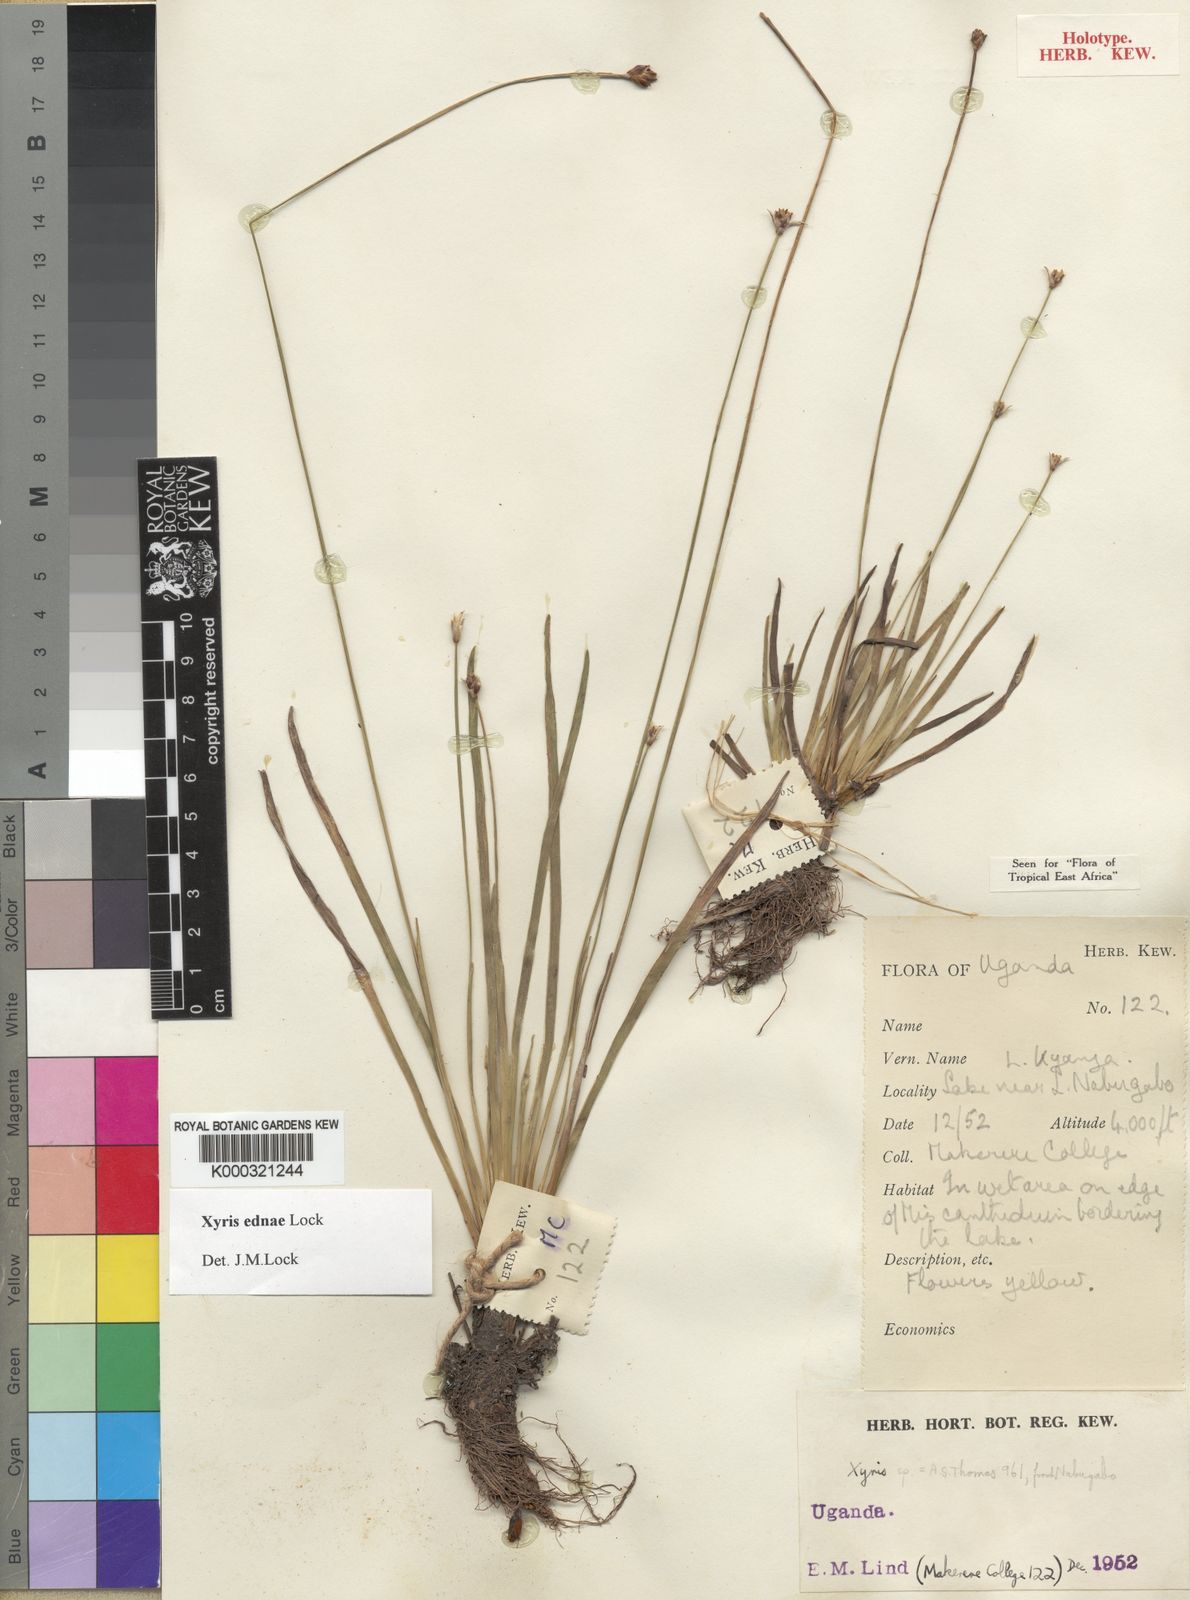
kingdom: Plantae
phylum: Tracheophyta
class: Liliopsida
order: Poales
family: Xyridaceae
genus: Xyris
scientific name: Xyris ednae
